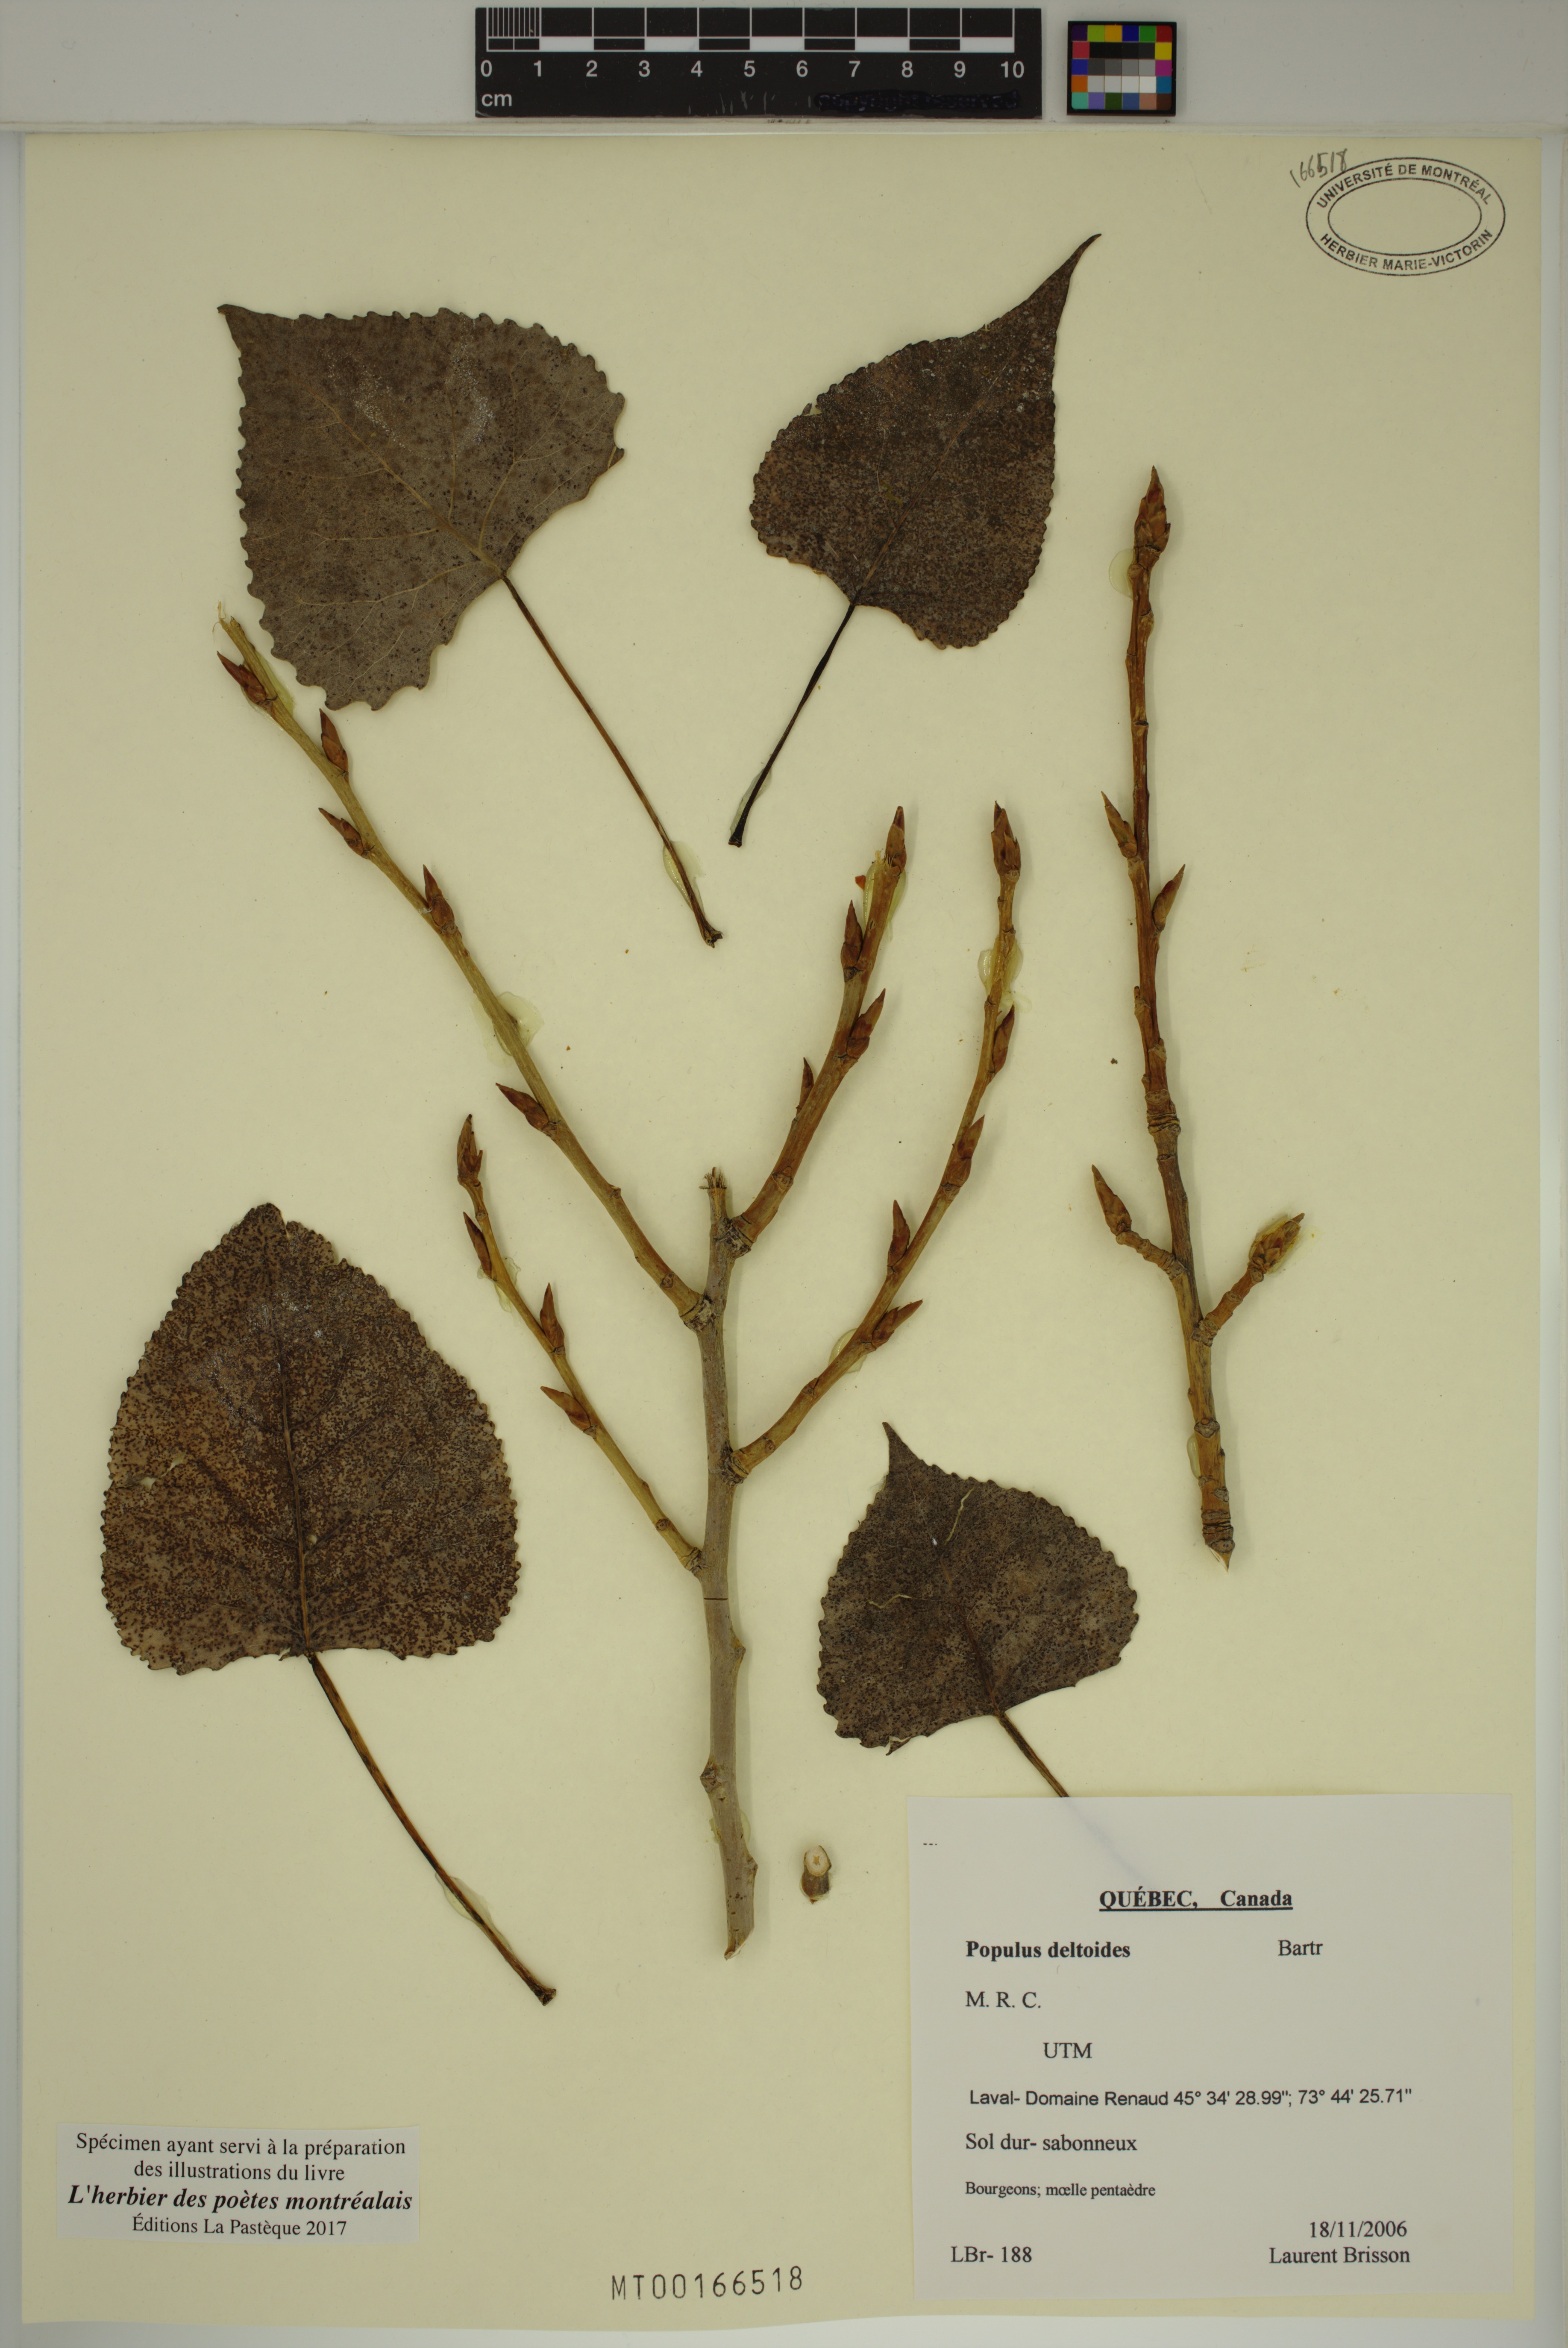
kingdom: Plantae
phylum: Tracheophyta
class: Magnoliopsida
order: Malpighiales
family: Salicaceae
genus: Populus
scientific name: Populus deltoides
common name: Eastern cottonwood
